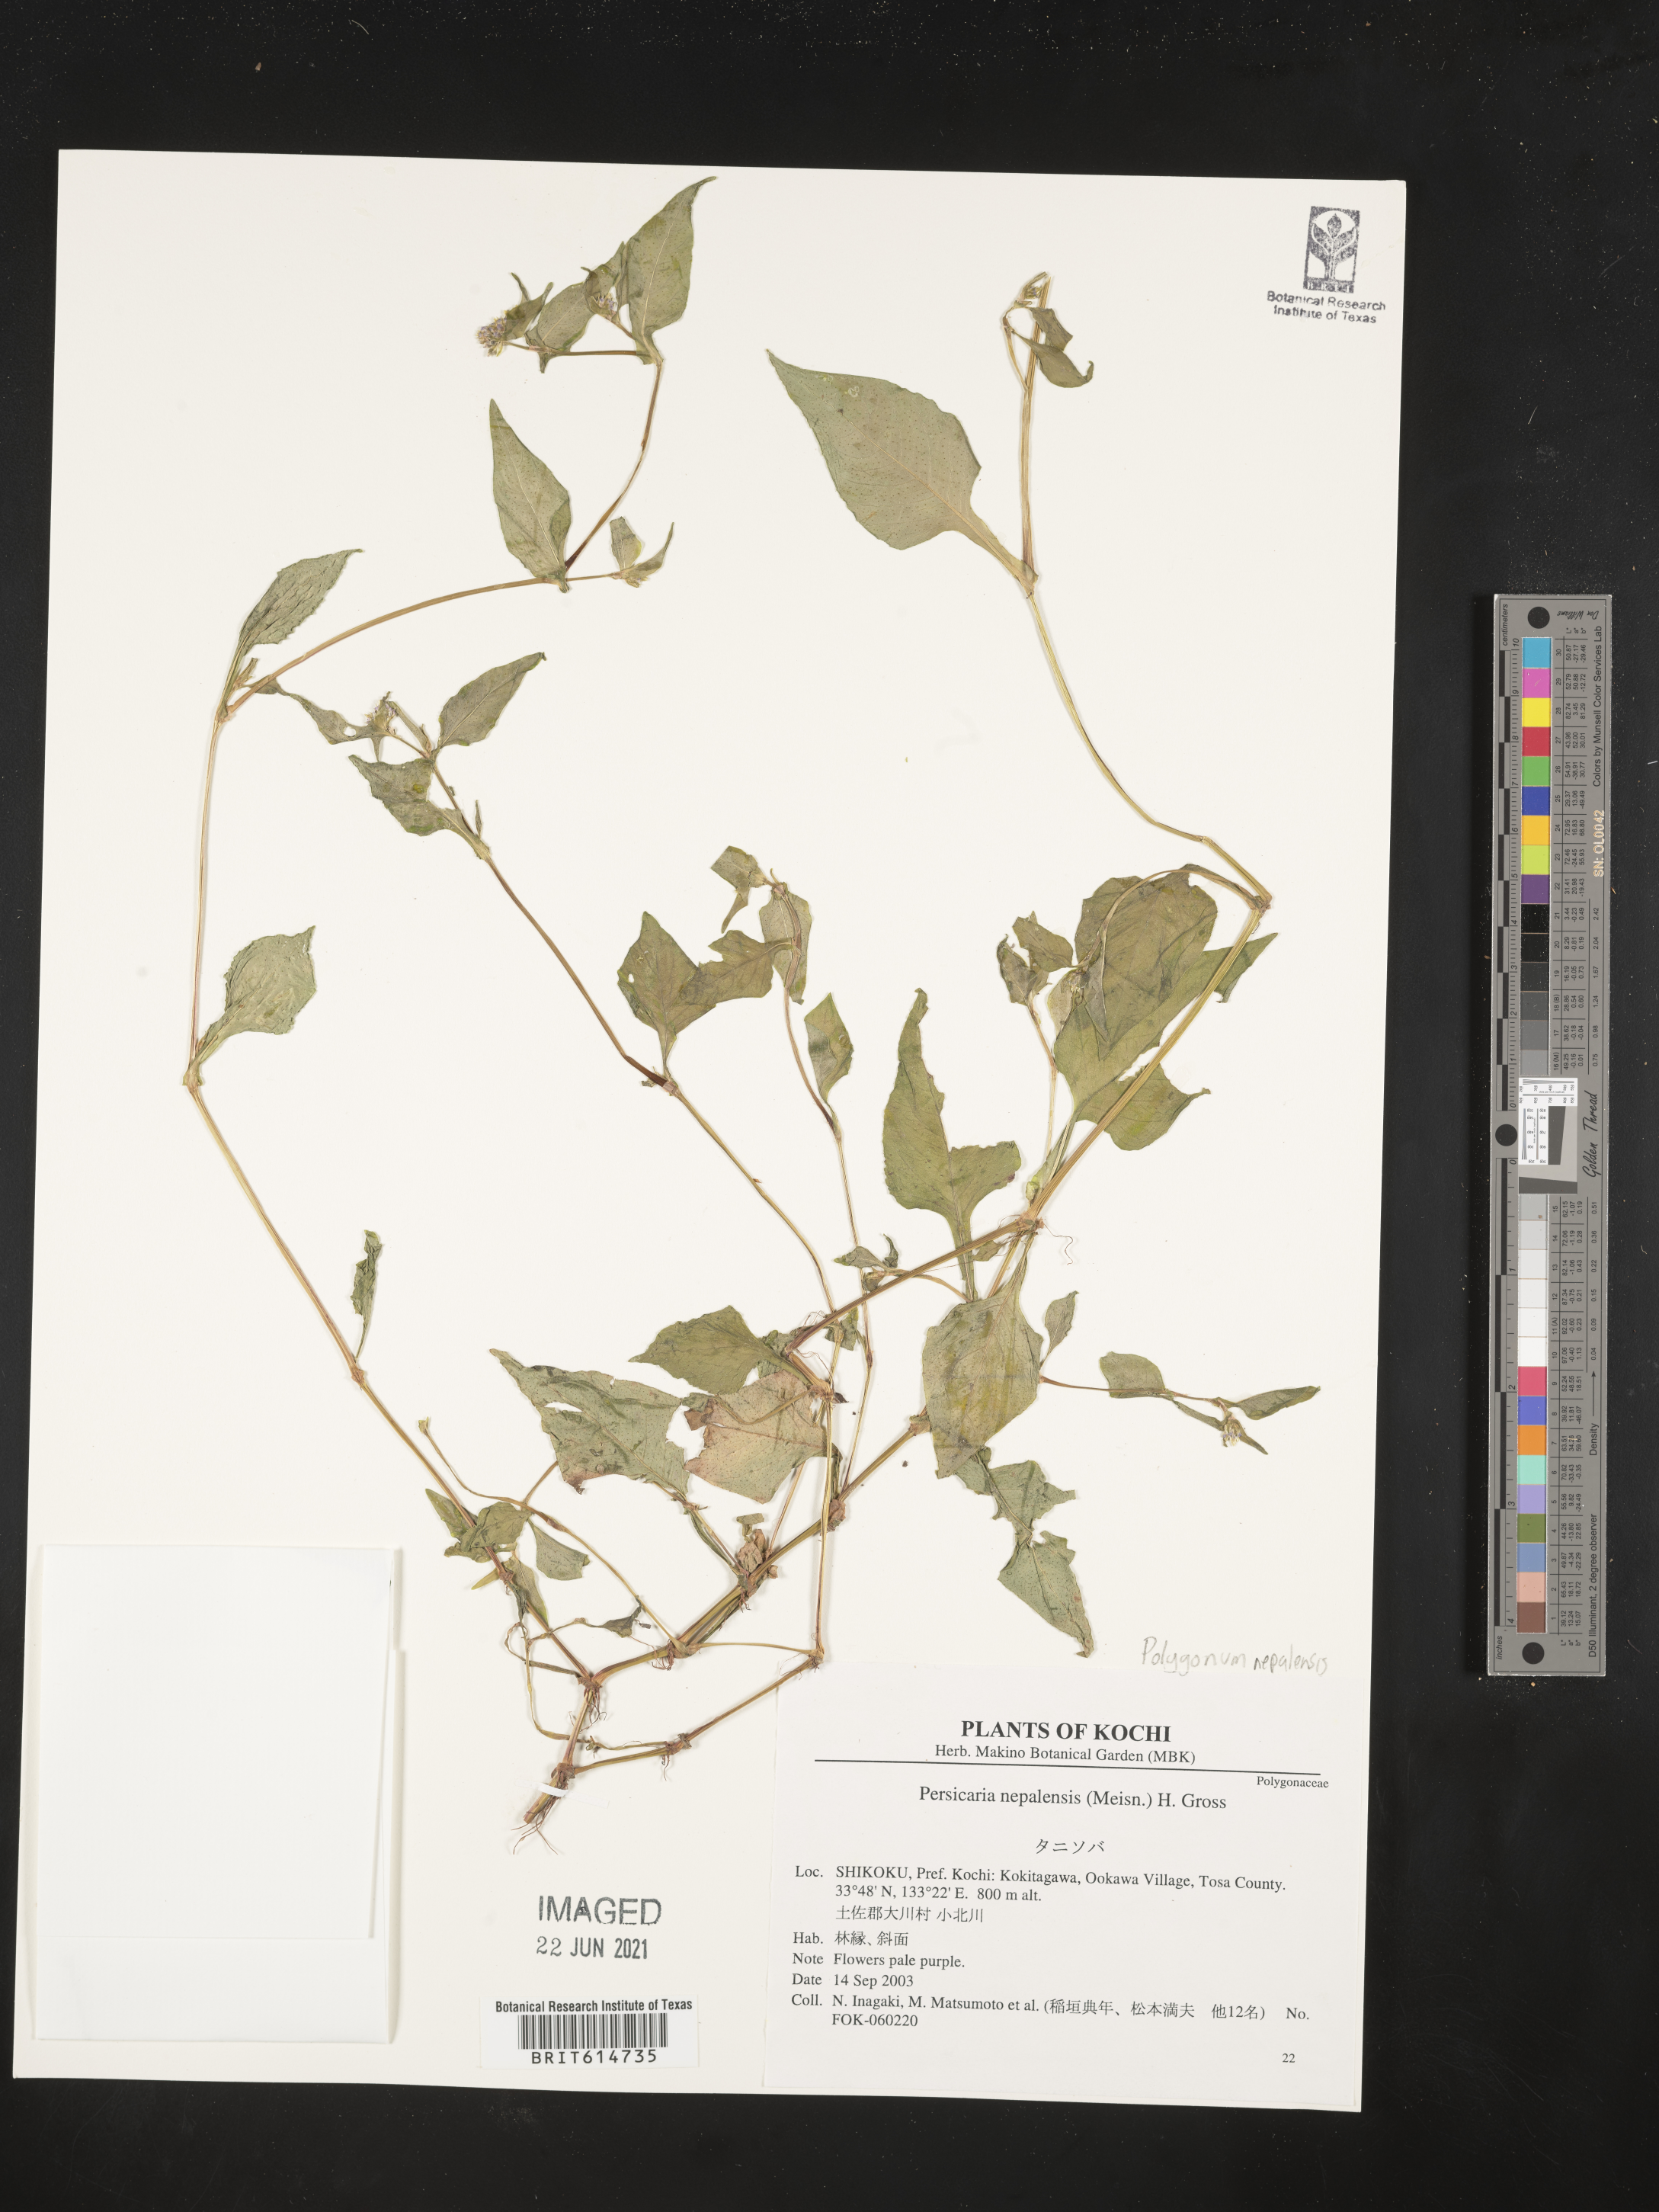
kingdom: Plantae
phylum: Tracheophyta
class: Magnoliopsida
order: Caryophyllales
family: Polygonaceae
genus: Persicaria
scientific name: Persicaria nepalensis
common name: Nepal persicaria
